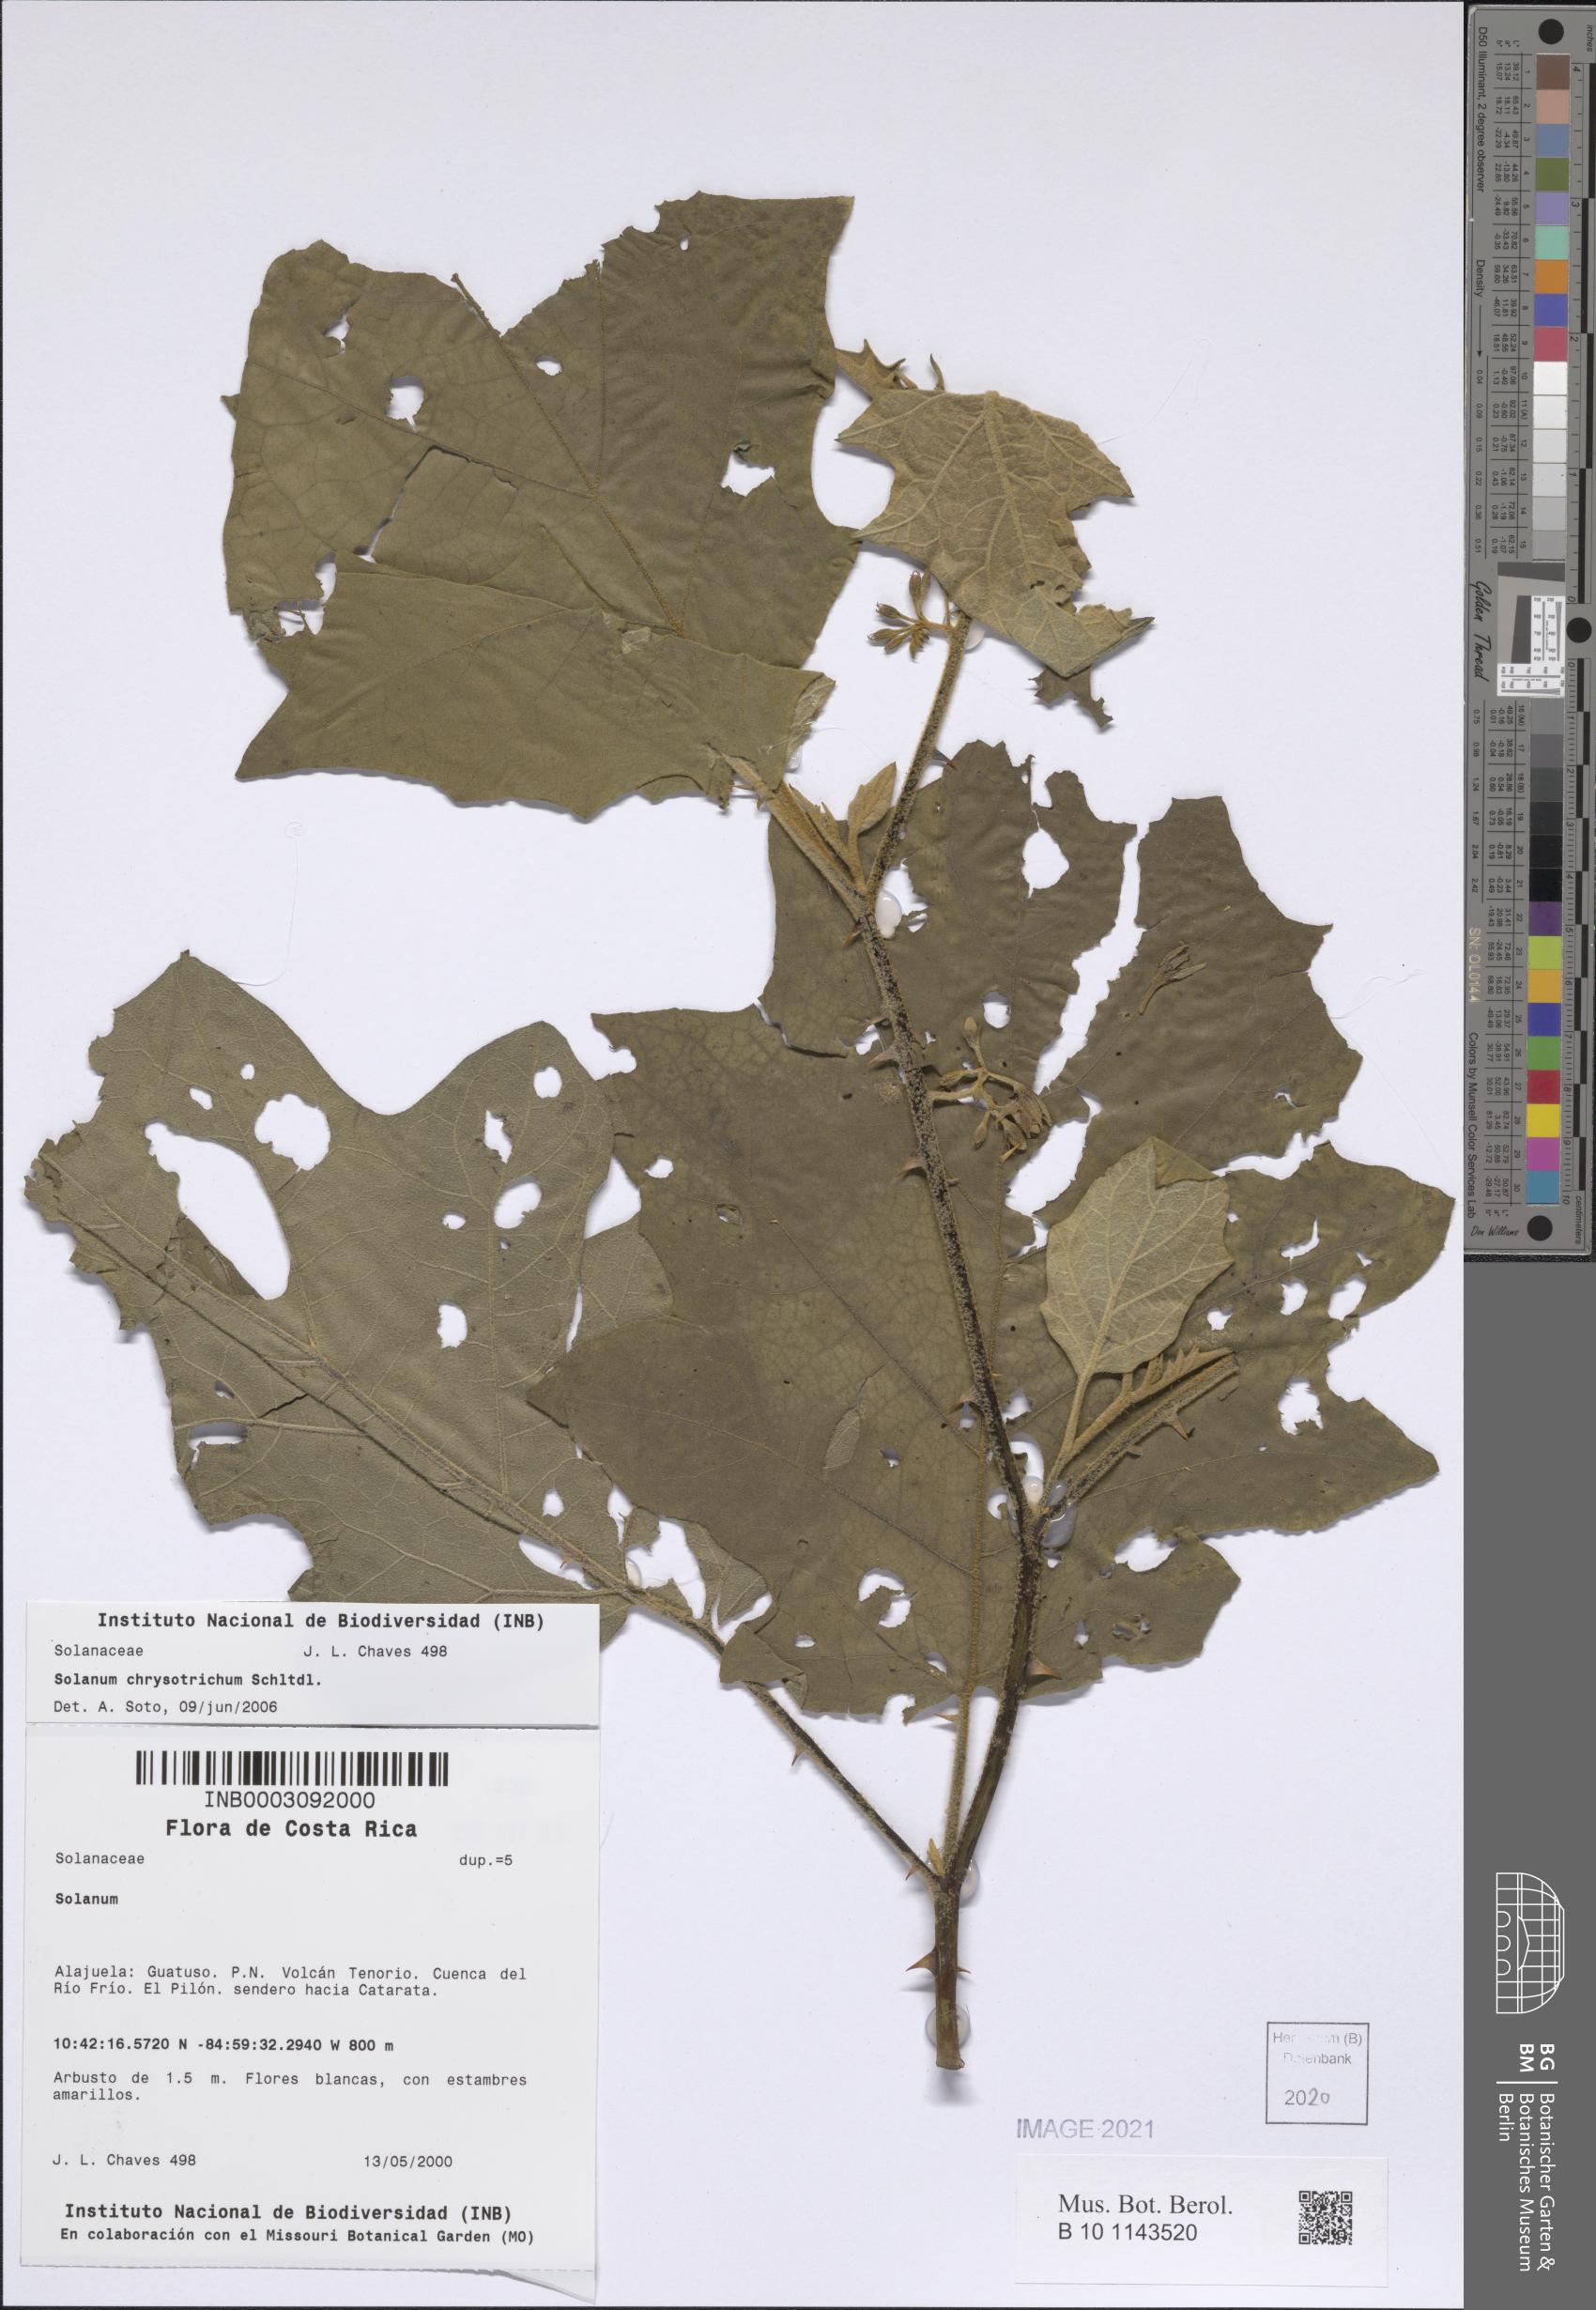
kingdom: Plantae
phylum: Tracheophyta
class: Magnoliopsida
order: Solanales
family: Solanaceae
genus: Solanum
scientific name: Solanum rude-pannum
